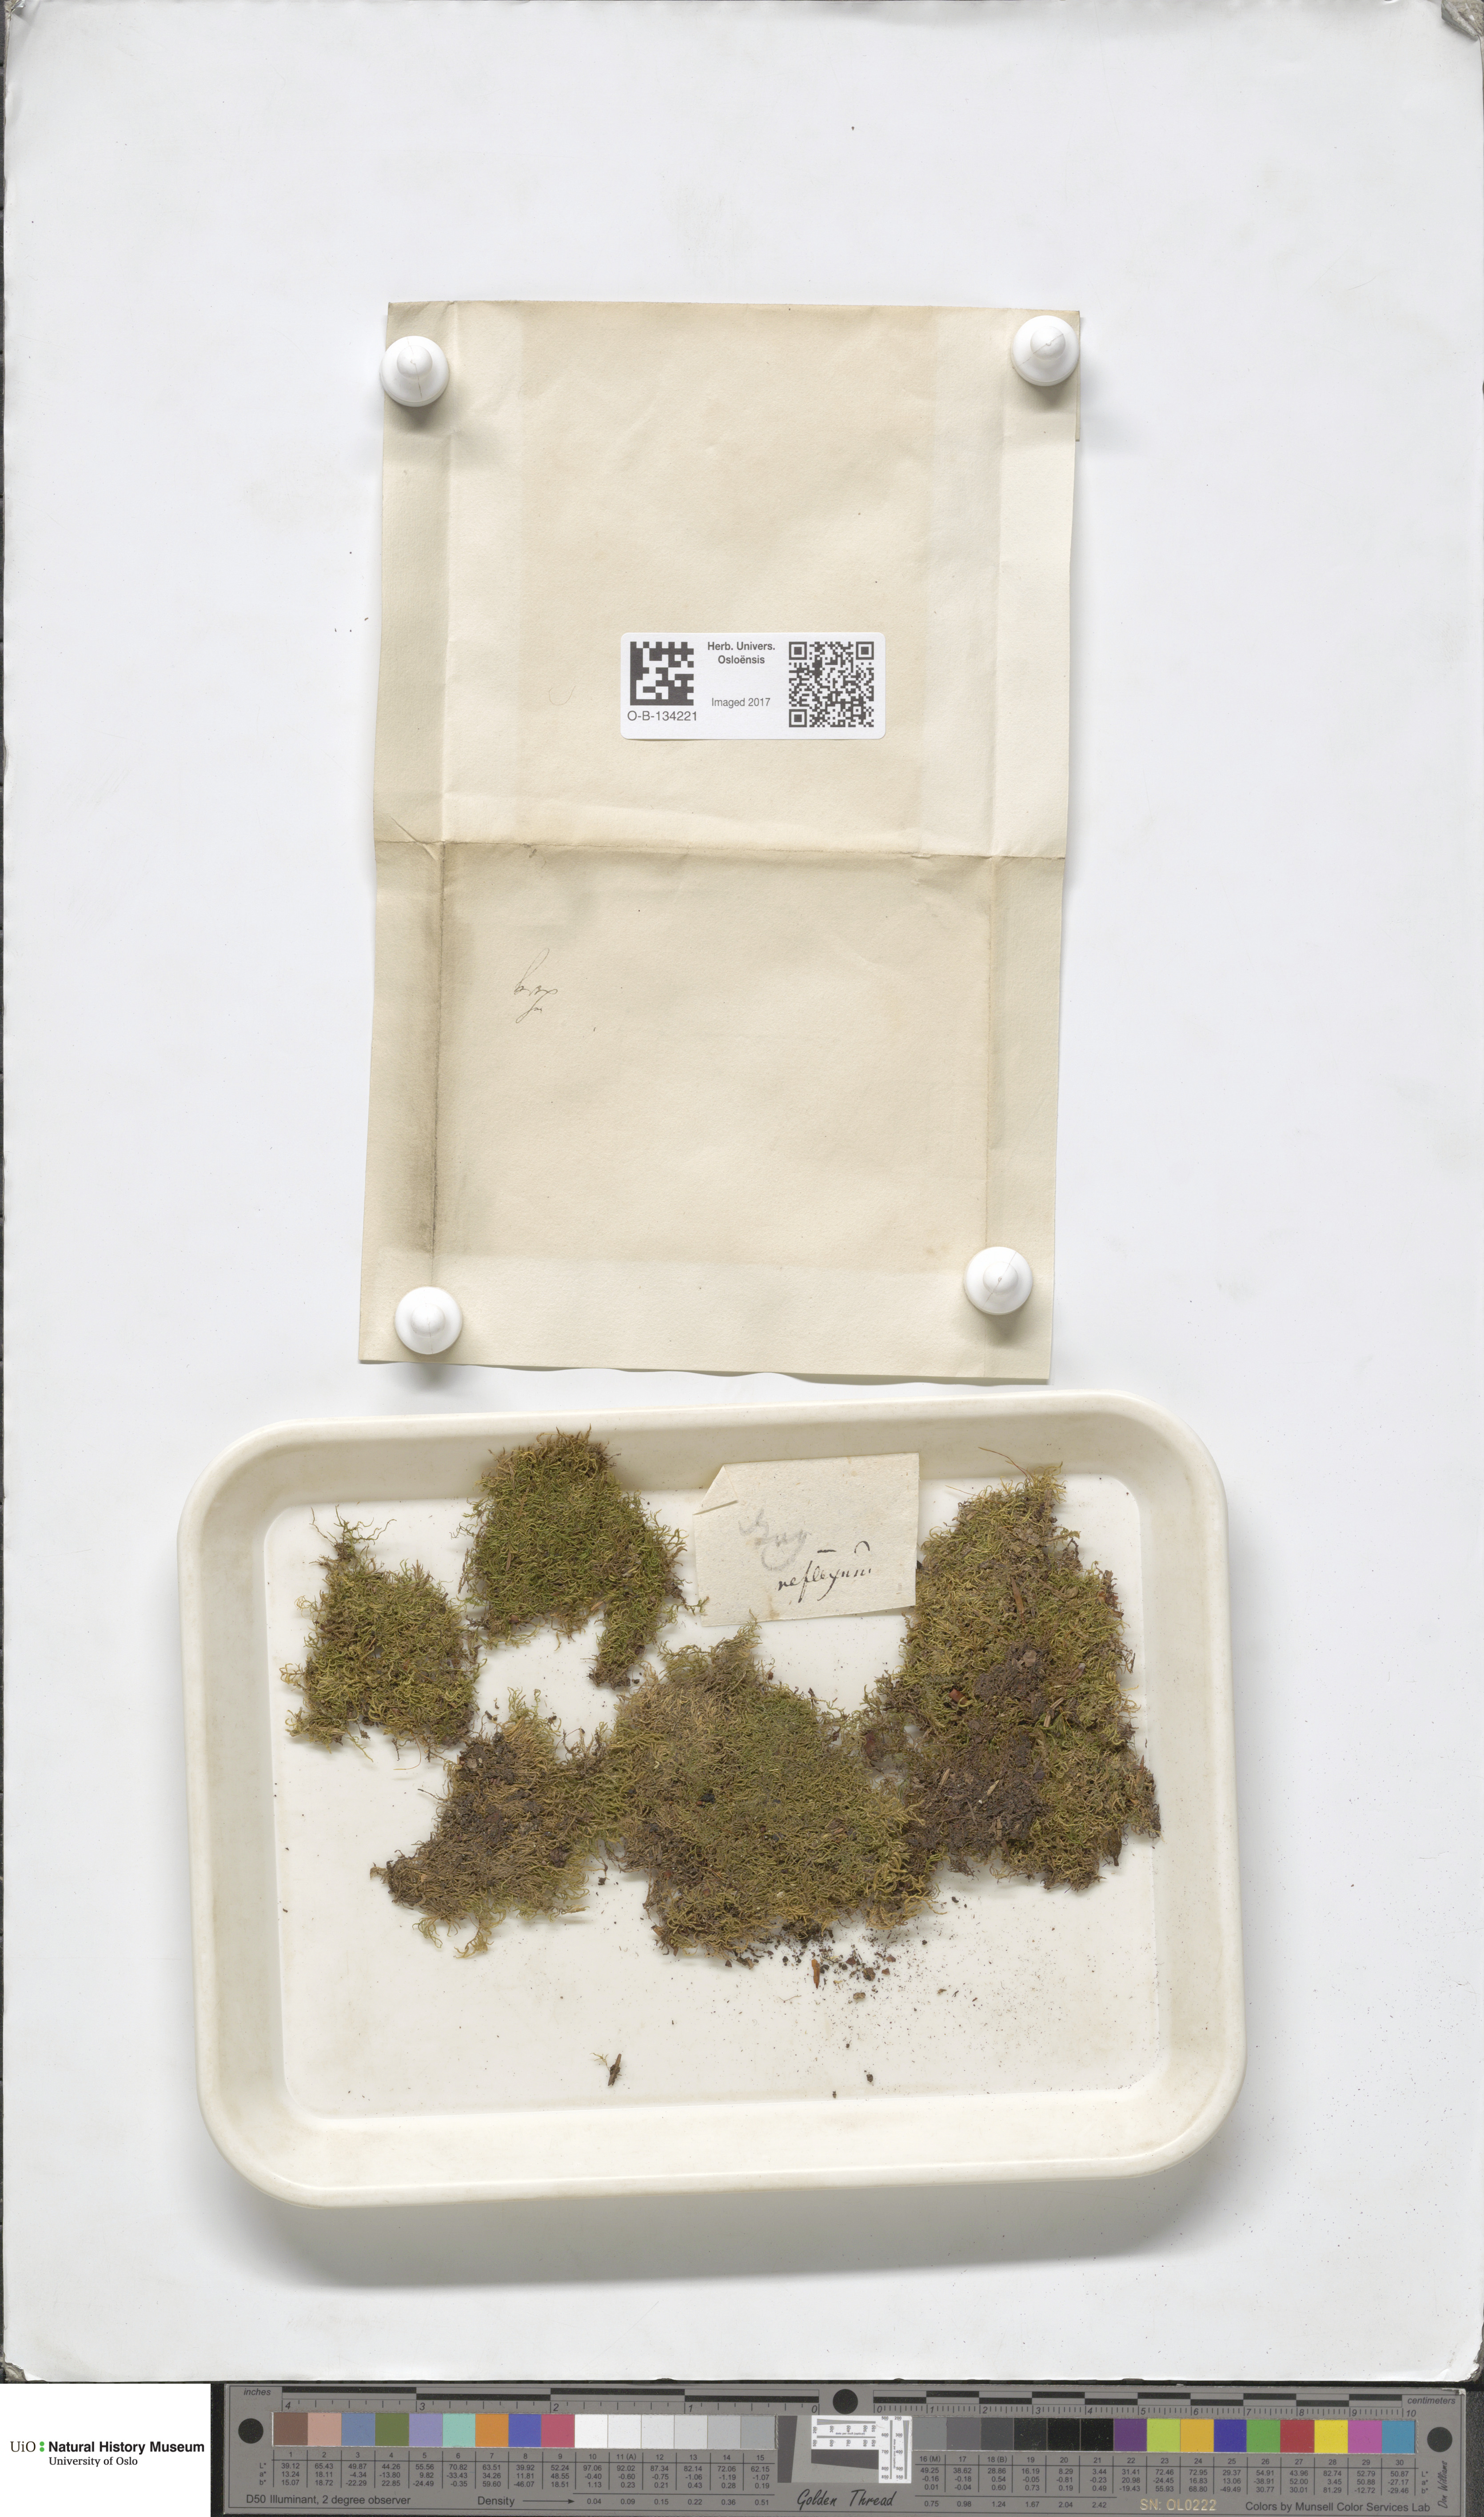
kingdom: Plantae
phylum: Bryophyta
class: Bryopsida
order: Hypnales
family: Brachytheciaceae
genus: Sciuro-hypnum
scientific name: Sciuro-hypnum reflexum
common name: Reflexed feather-moss
